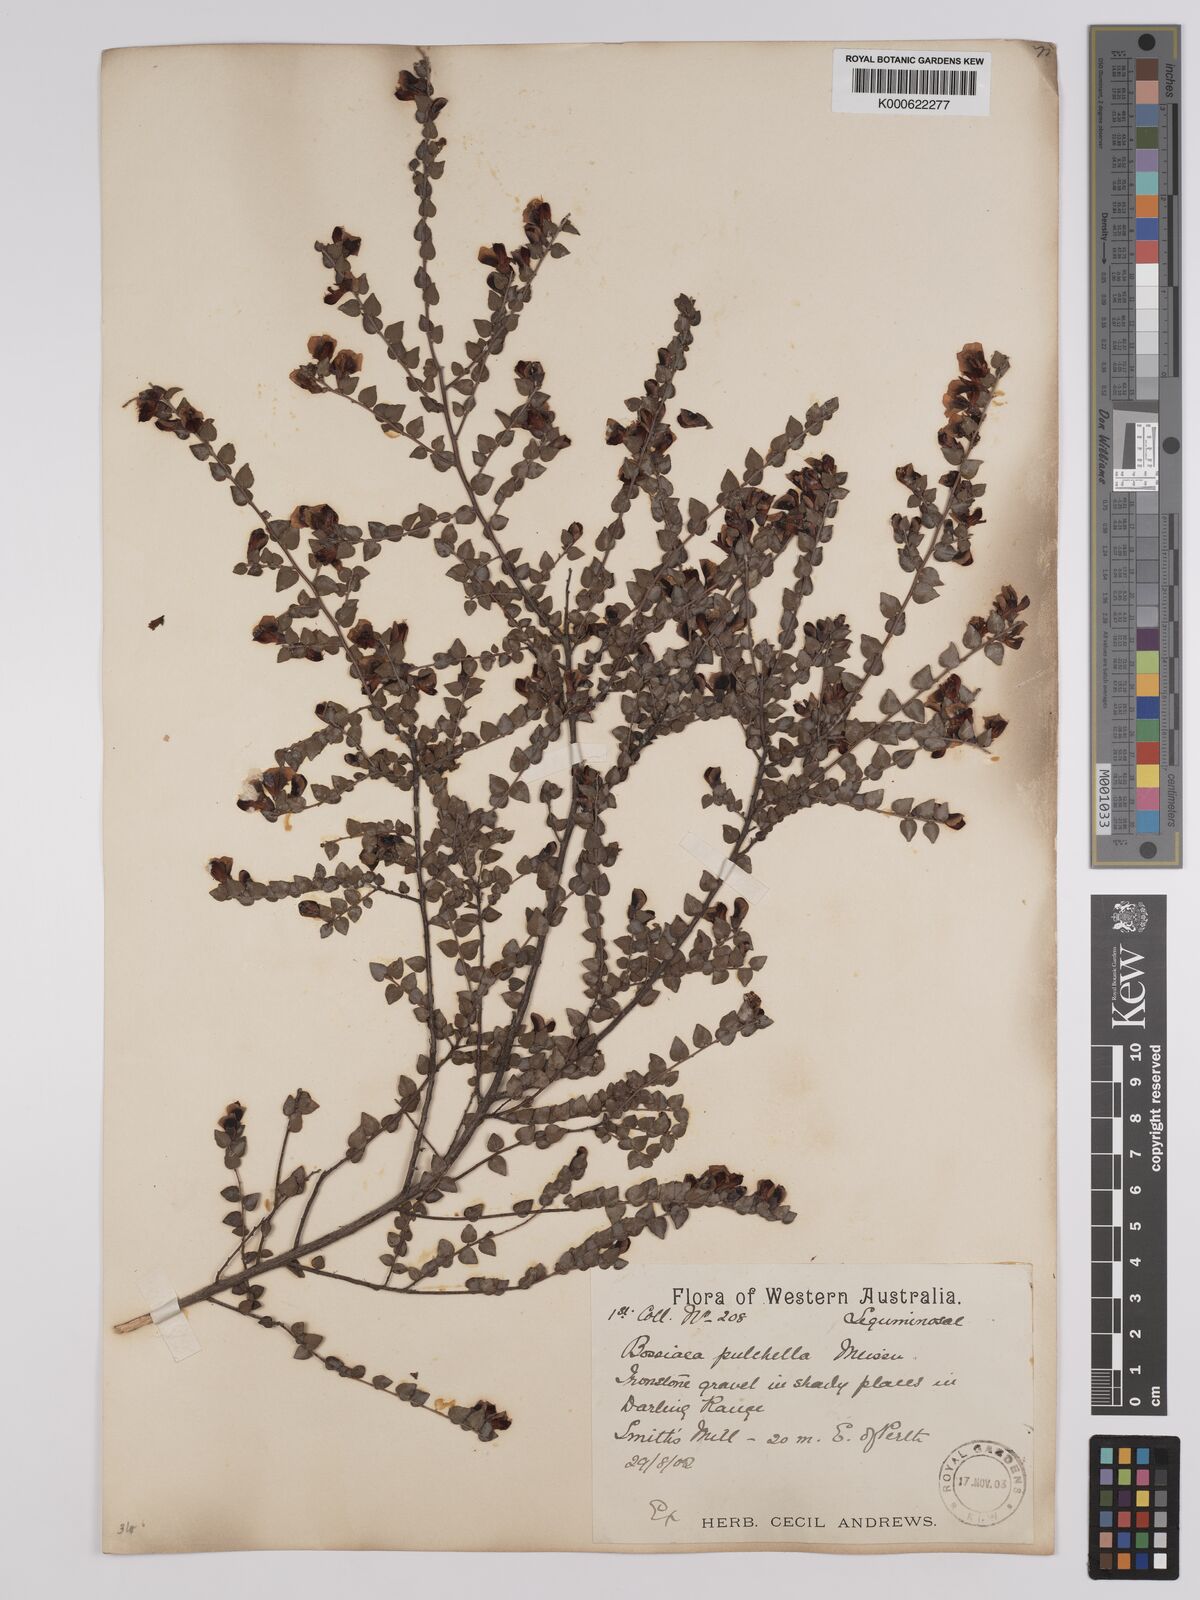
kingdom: Plantae
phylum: Tracheophyta
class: Magnoliopsida
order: Fabales
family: Fabaceae
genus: Bossiaea
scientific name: Bossiaea pulchella
